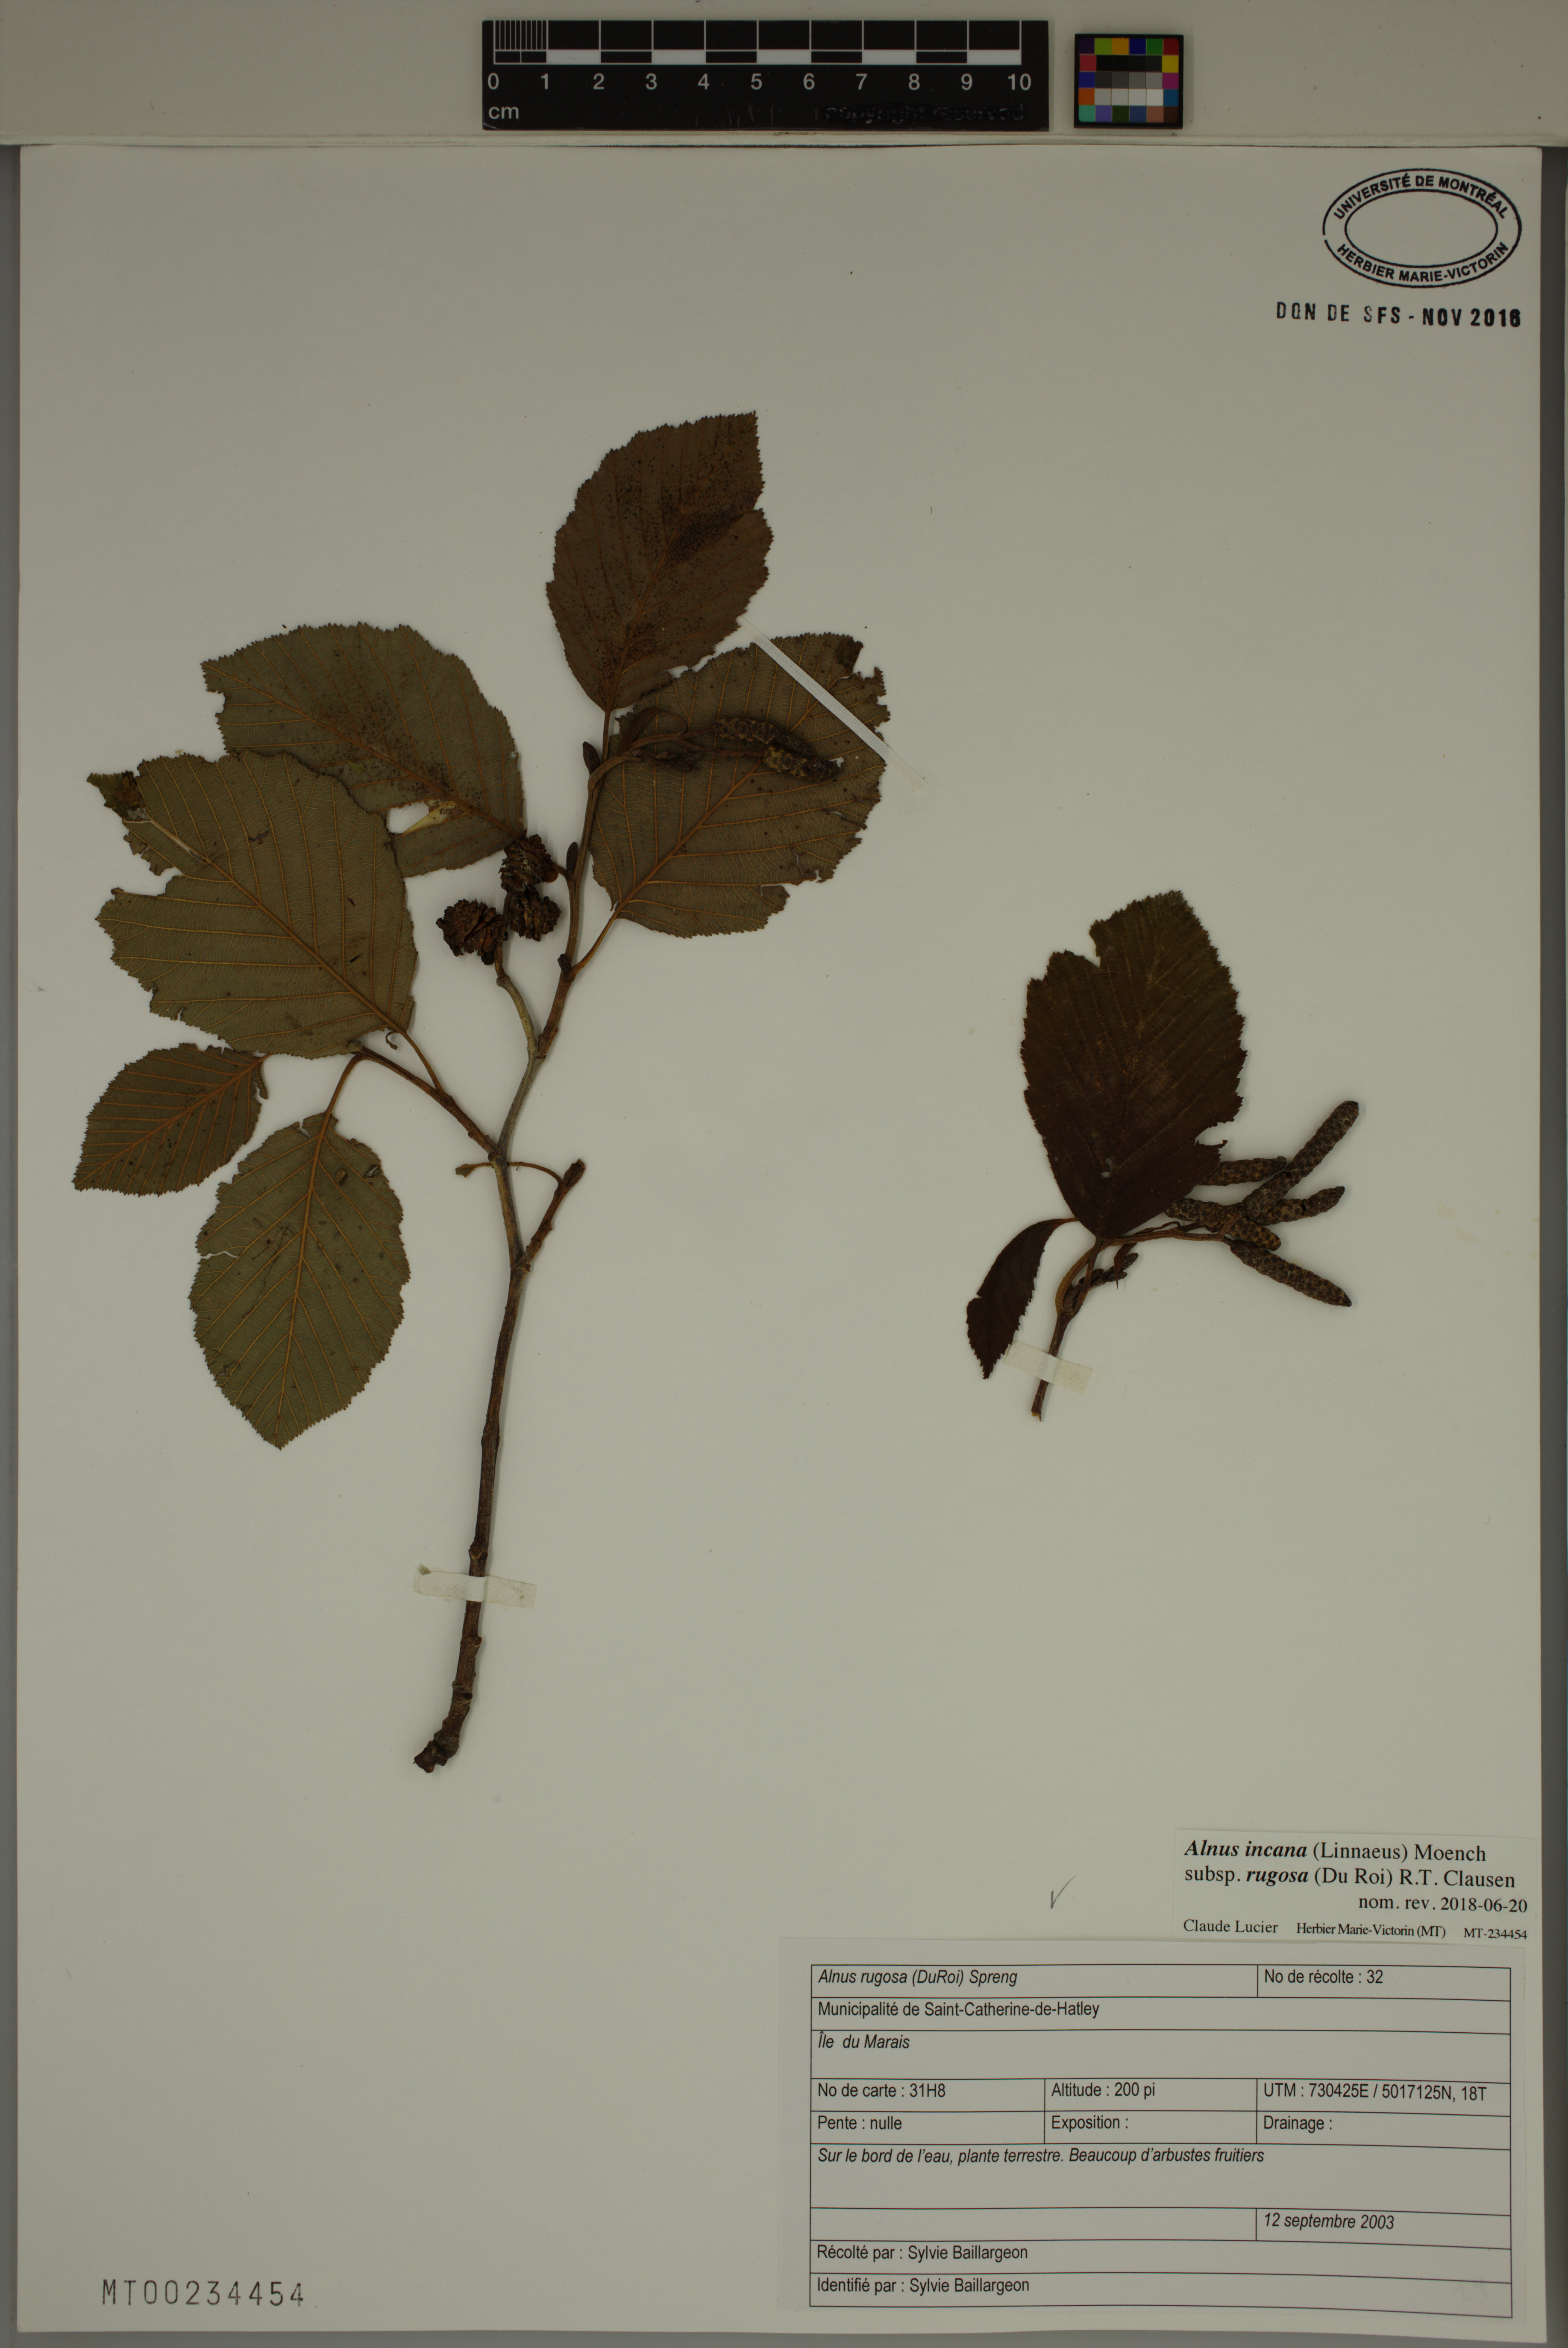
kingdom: Plantae
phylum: Tracheophyta
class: Magnoliopsida
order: Fagales
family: Betulaceae
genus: Alnus
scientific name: Alnus incana
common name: Grey alder
